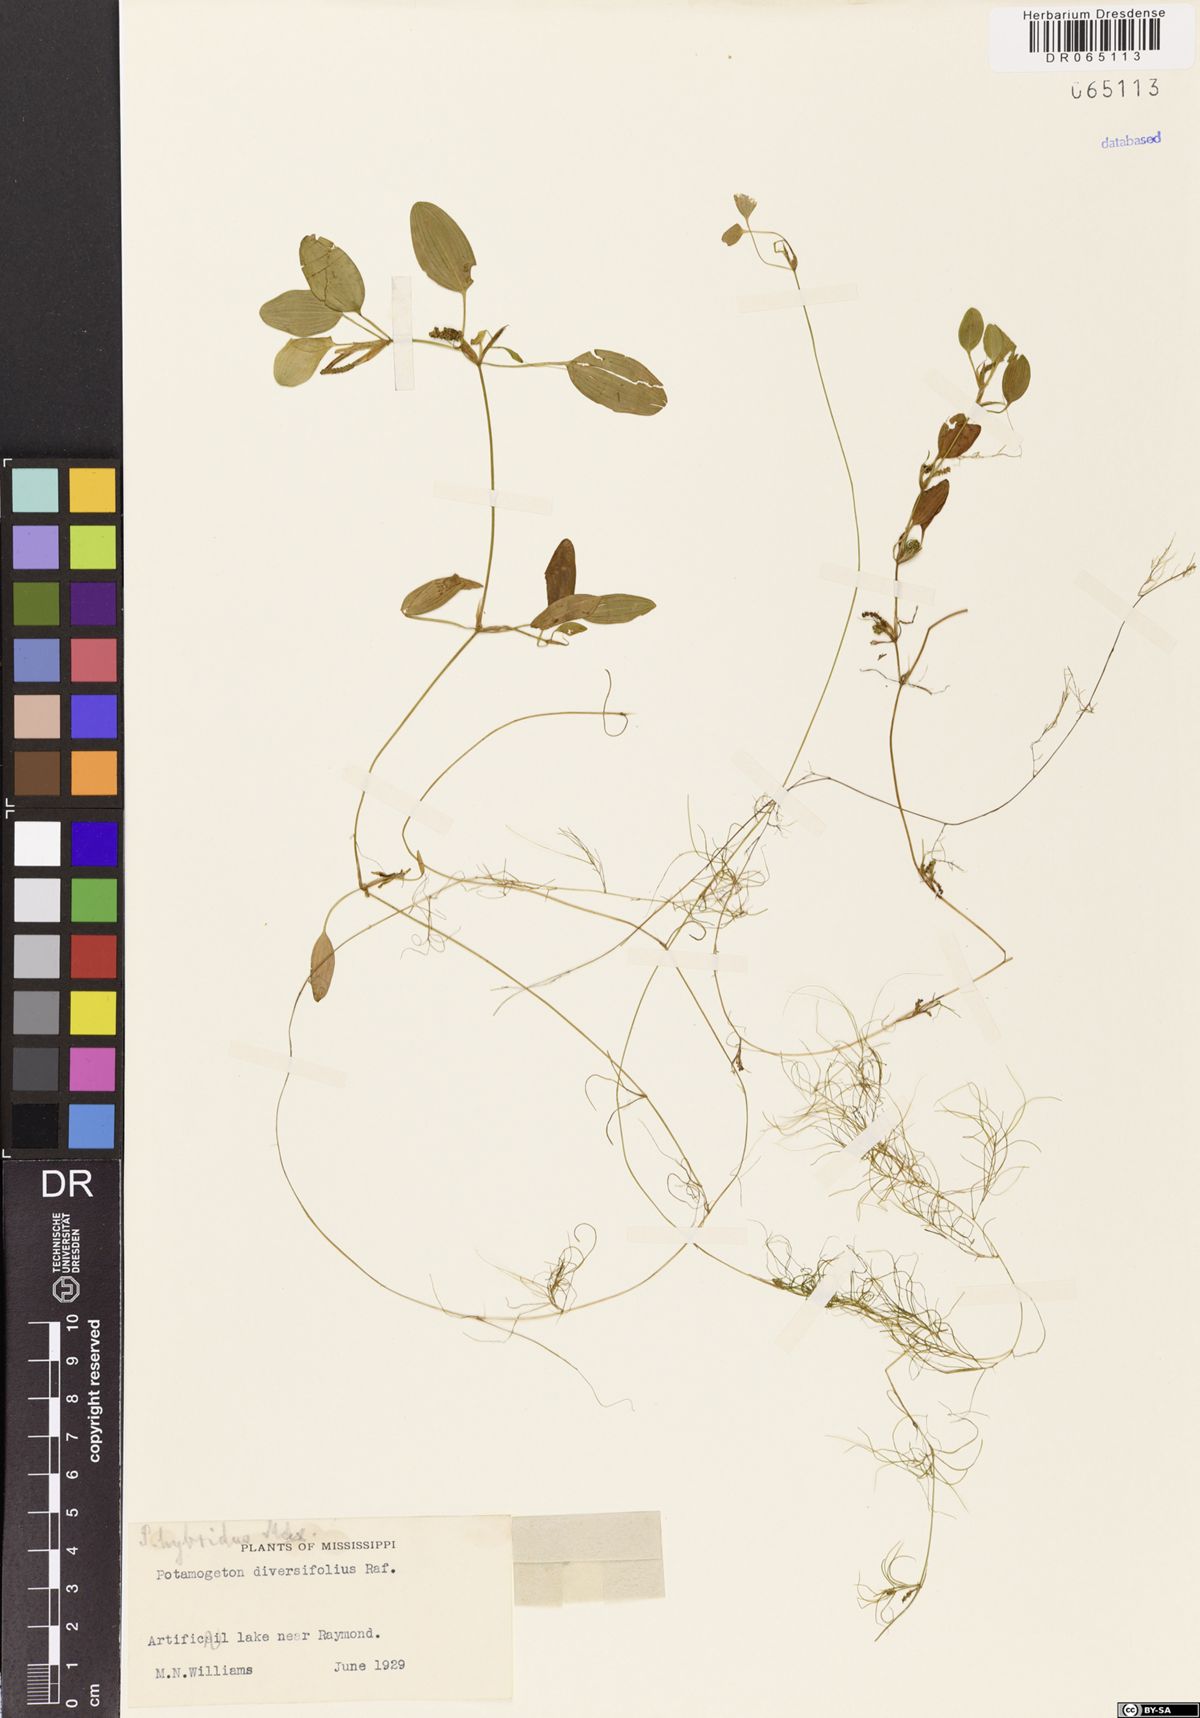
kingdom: Plantae
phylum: Tracheophyta
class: Liliopsida
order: Alismatales
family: Potamogetonaceae
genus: Potamogeton
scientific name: Potamogeton diversifolius
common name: Water-thread pondweed
